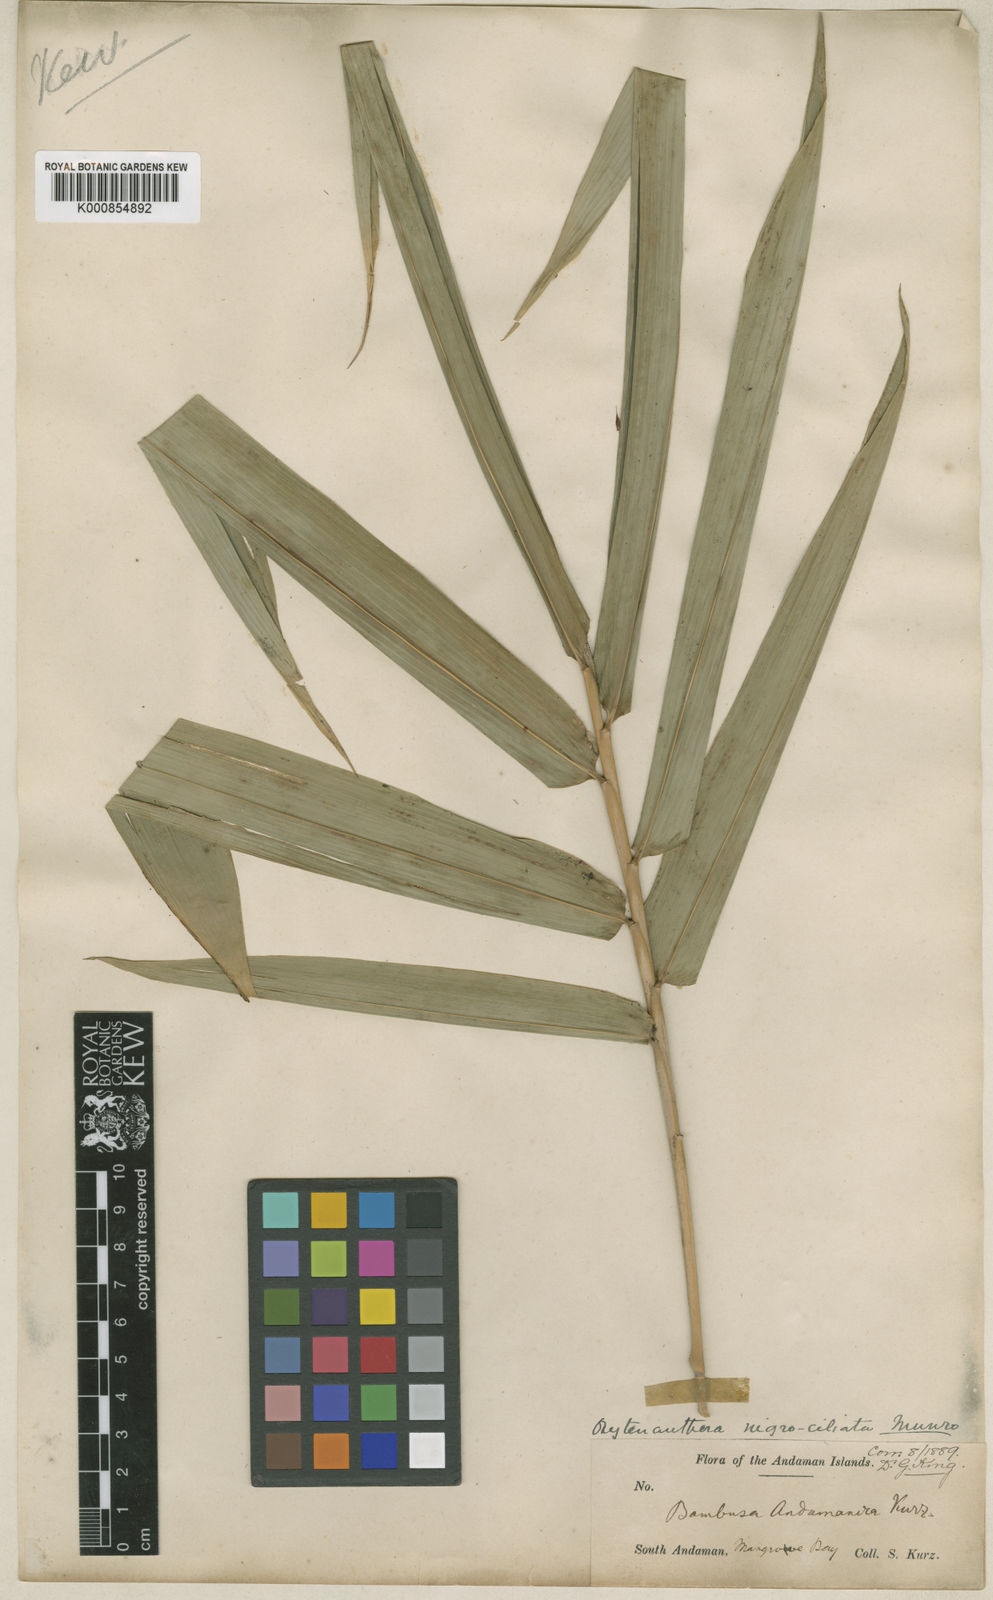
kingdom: Plantae
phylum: Tracheophyta
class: Liliopsida
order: Poales
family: Poaceae
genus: Gigantochloa
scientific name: Gigantochloa nigrociliata
